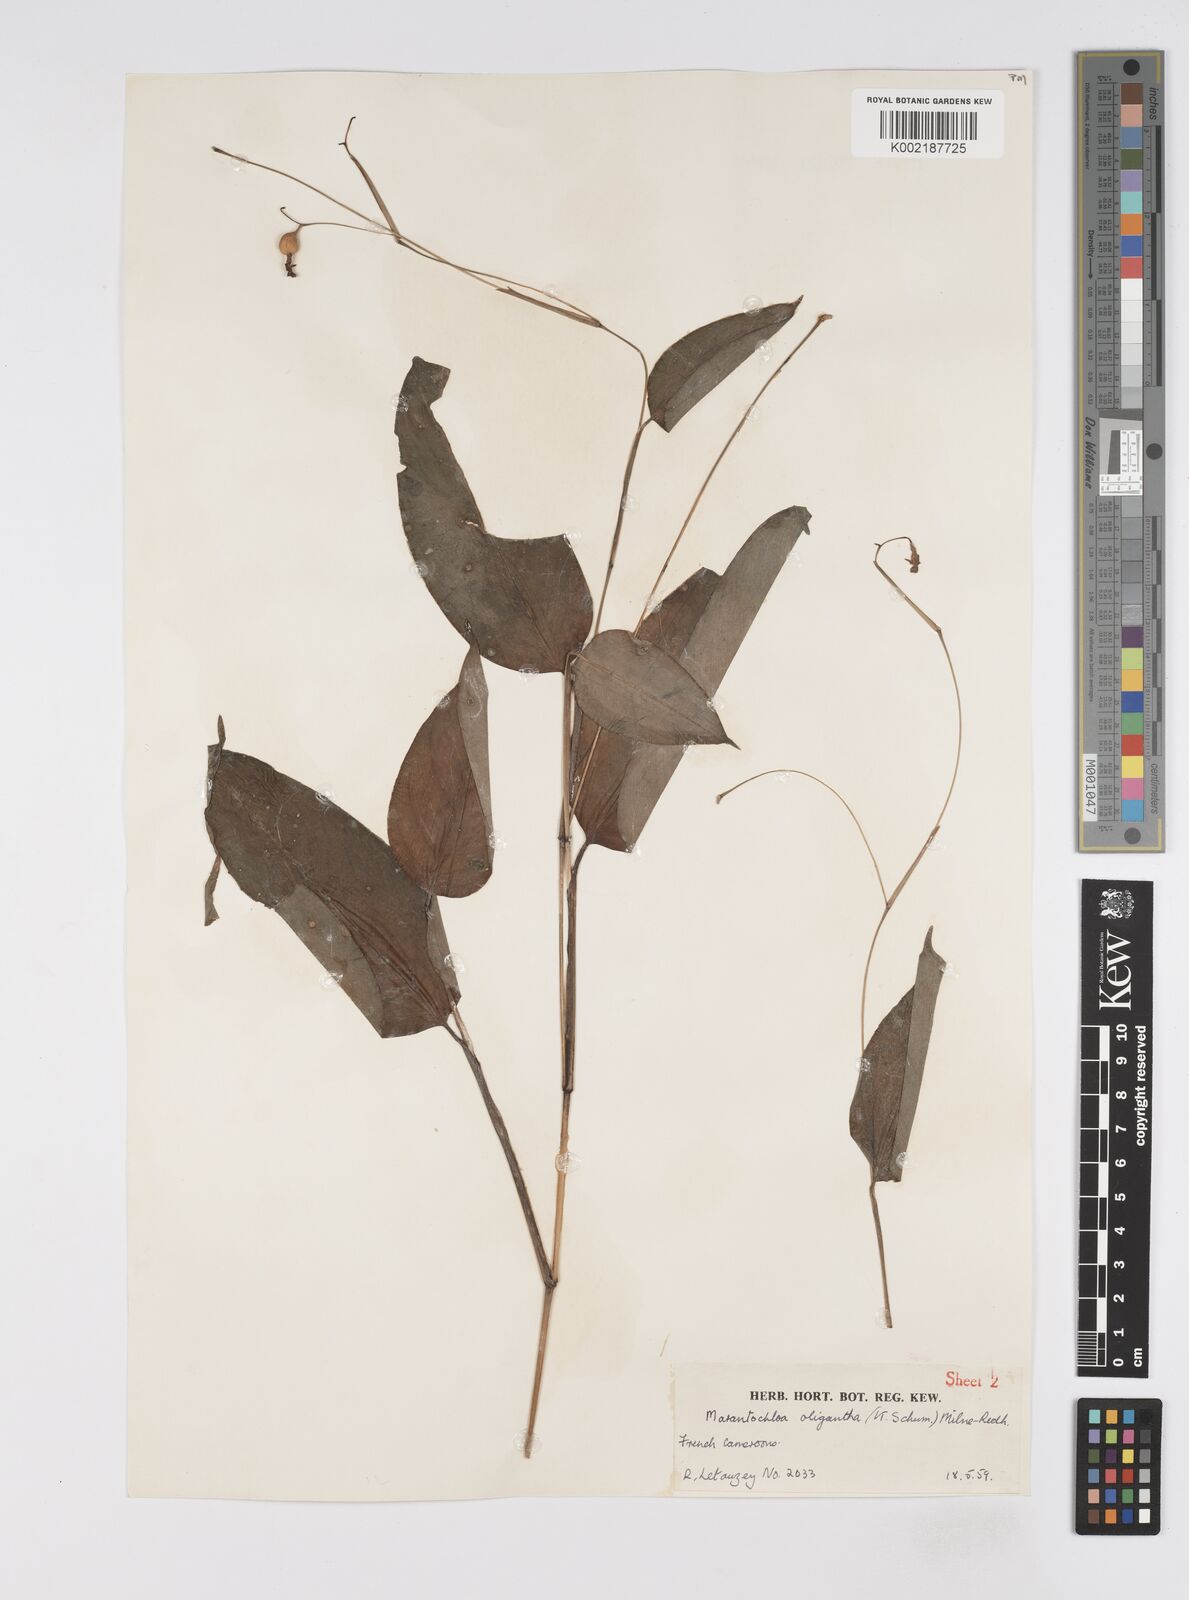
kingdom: Plantae
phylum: Tracheophyta
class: Liliopsida
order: Zingiberales
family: Marantaceae
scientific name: Marantaceae
